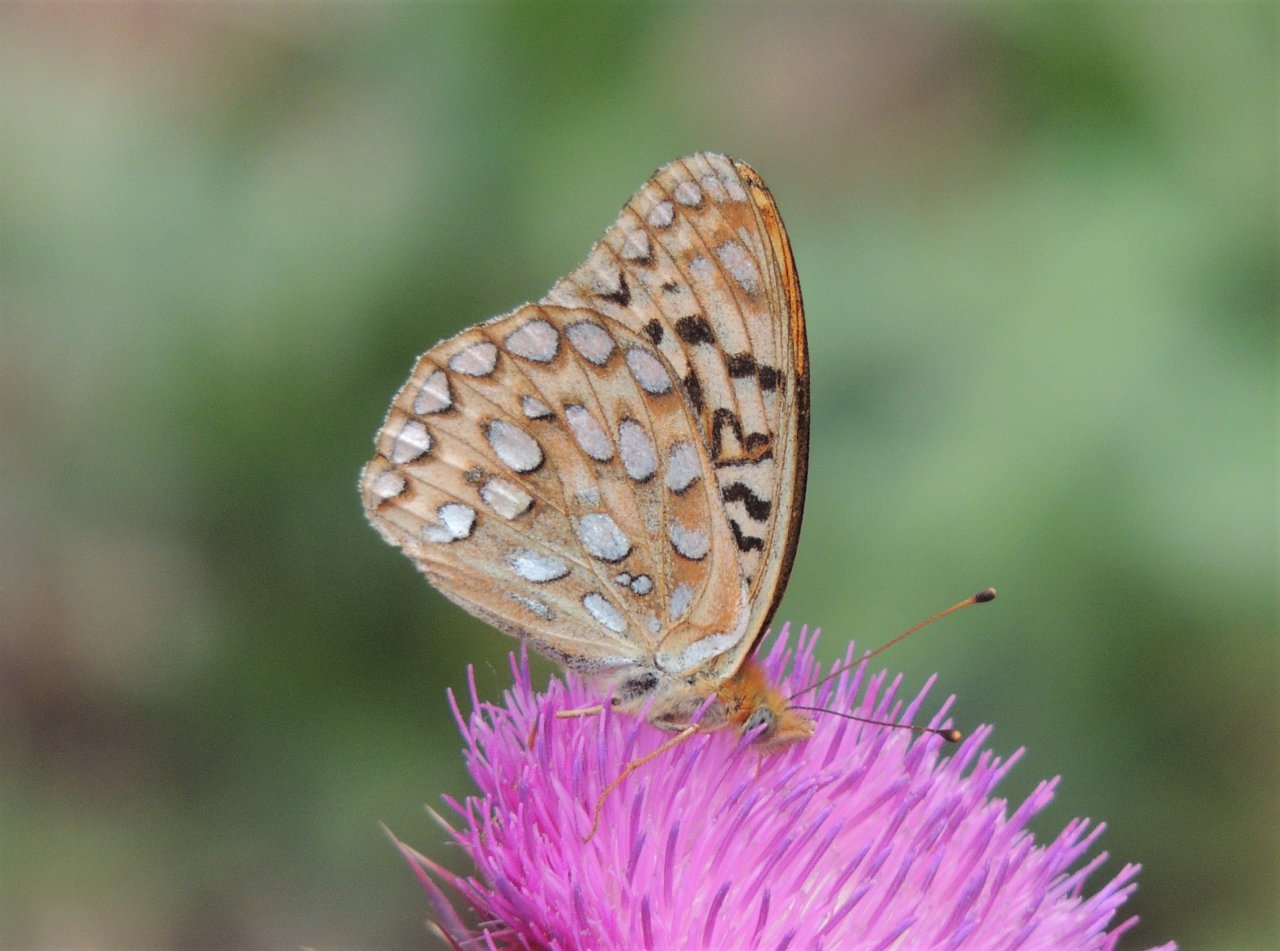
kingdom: Animalia
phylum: Arthropoda
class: Insecta
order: Lepidoptera
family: Nymphalidae
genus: Speyeria
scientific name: Speyeria zerene
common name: Zerene Fritillary
